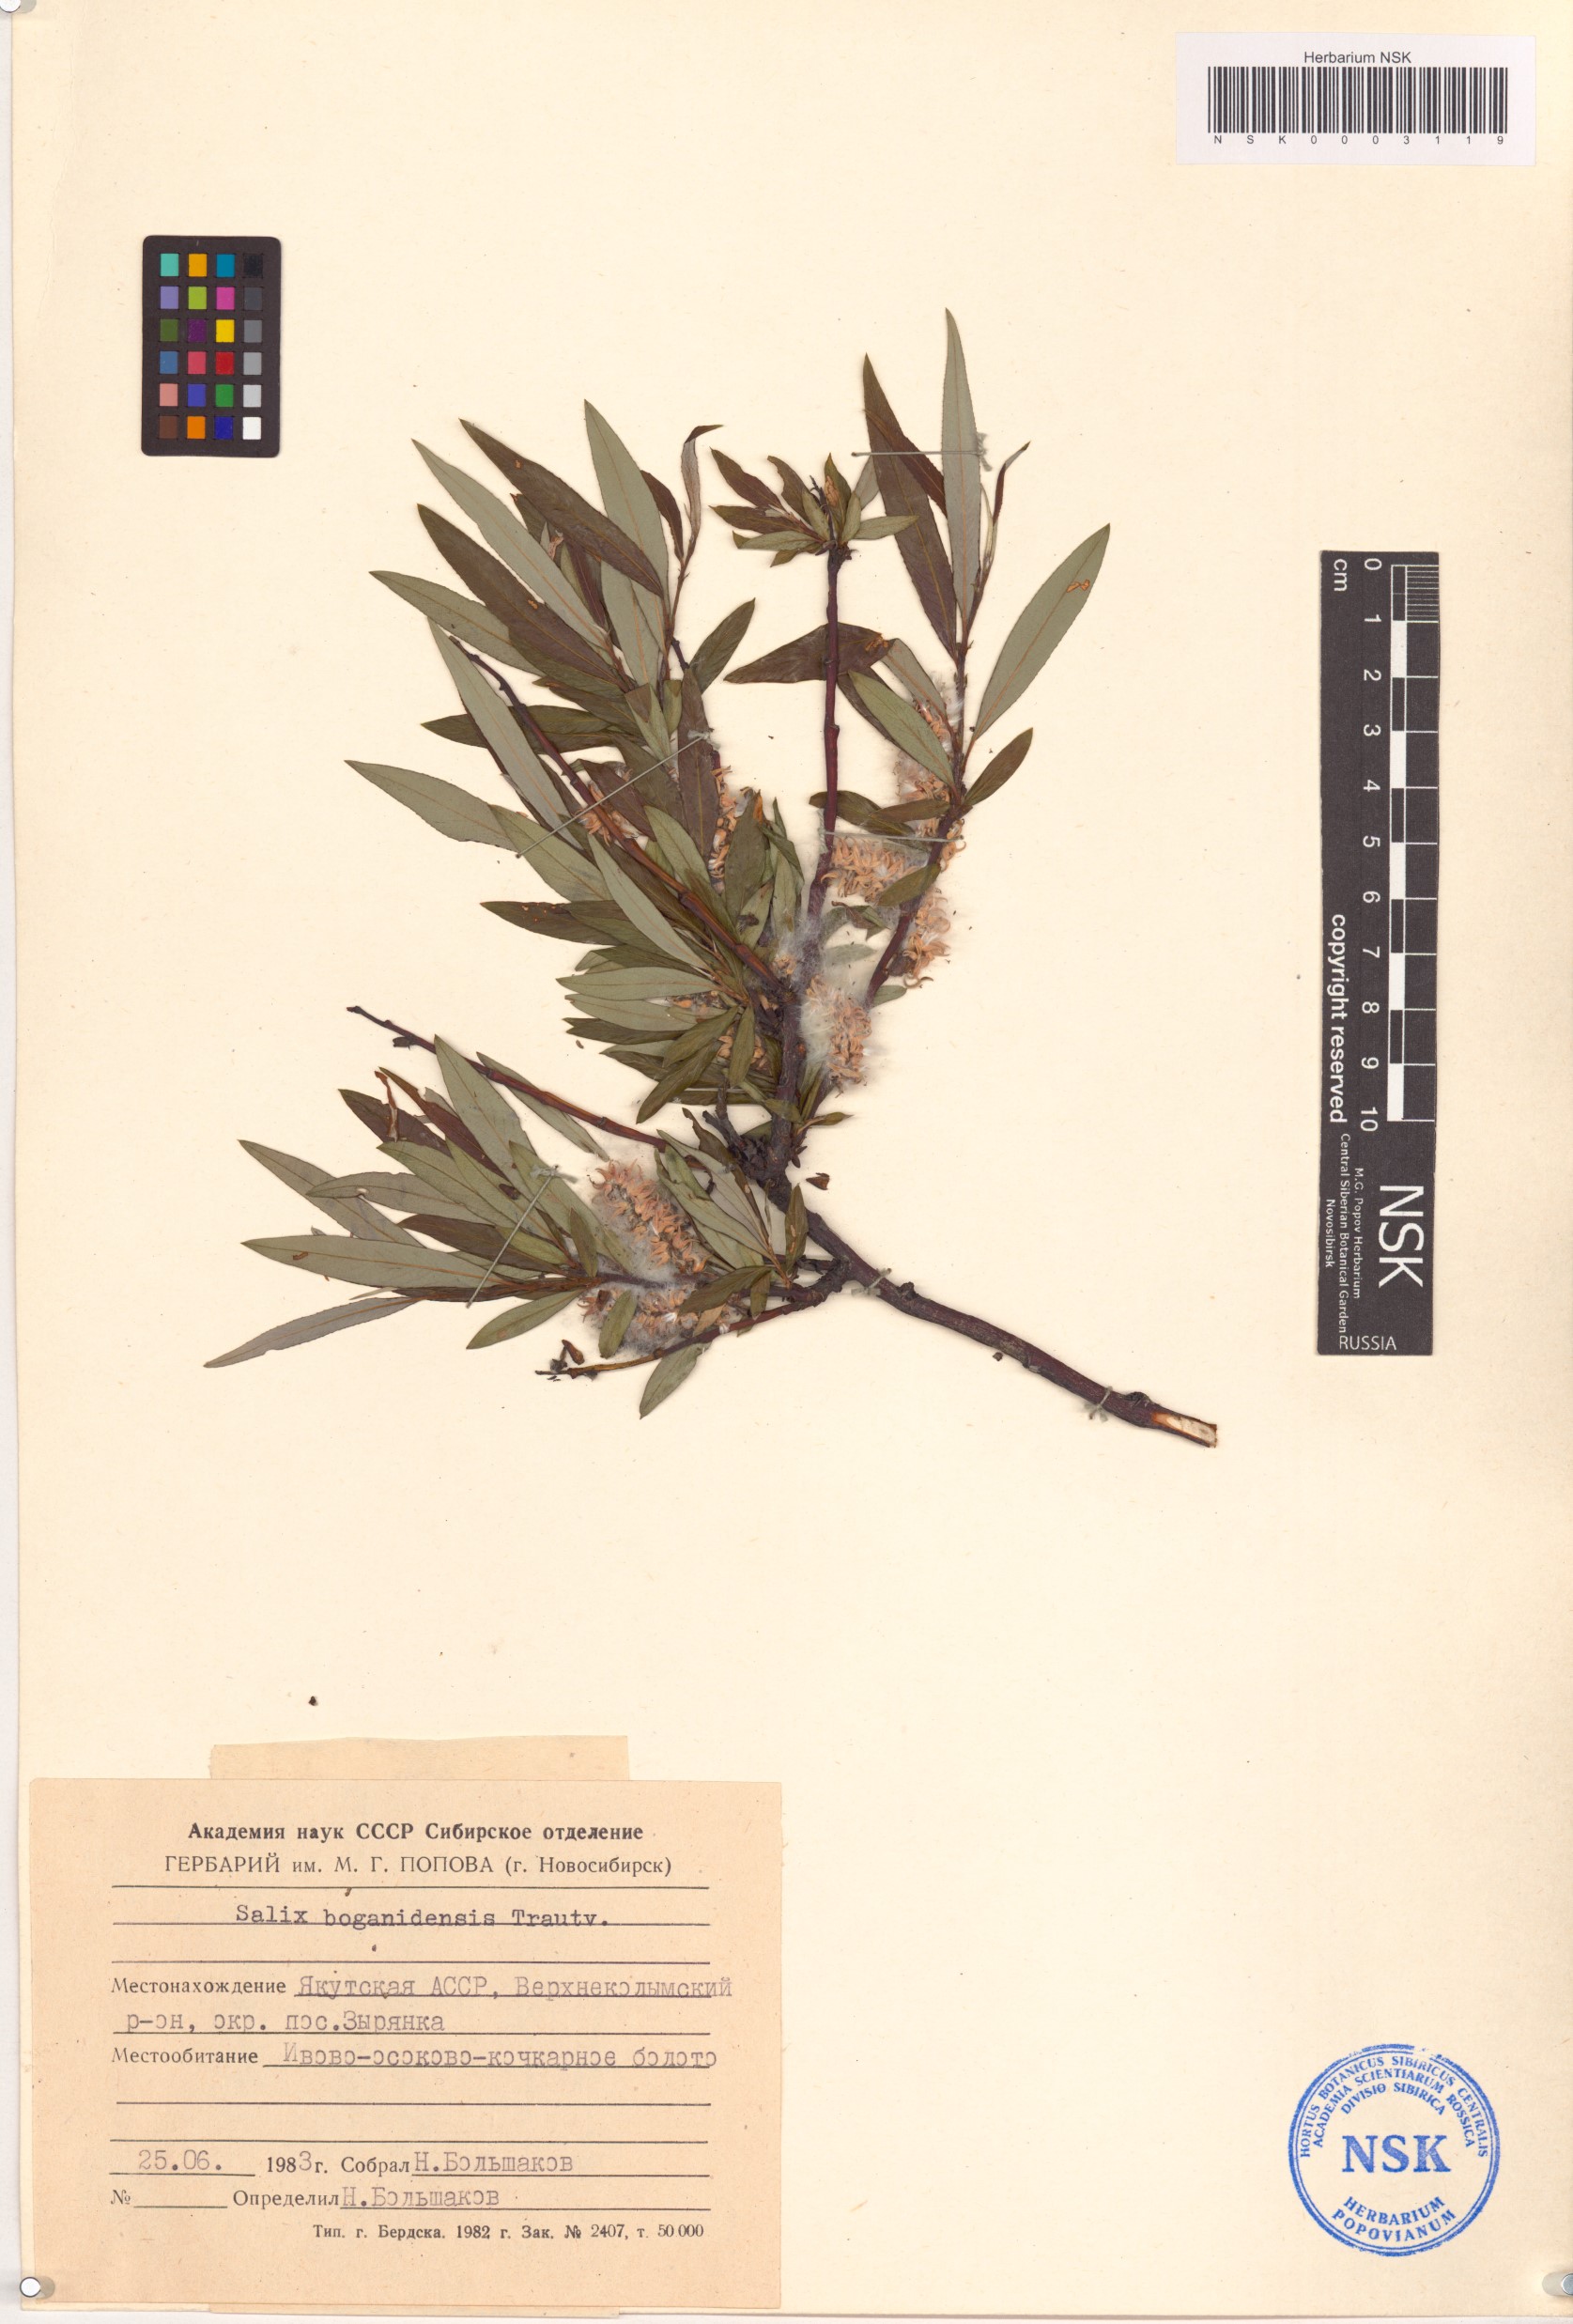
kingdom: Plantae
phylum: Tracheophyta
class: Magnoliopsida
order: Malpighiales
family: Salicaceae
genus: Salix
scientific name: Salix boganidensis
